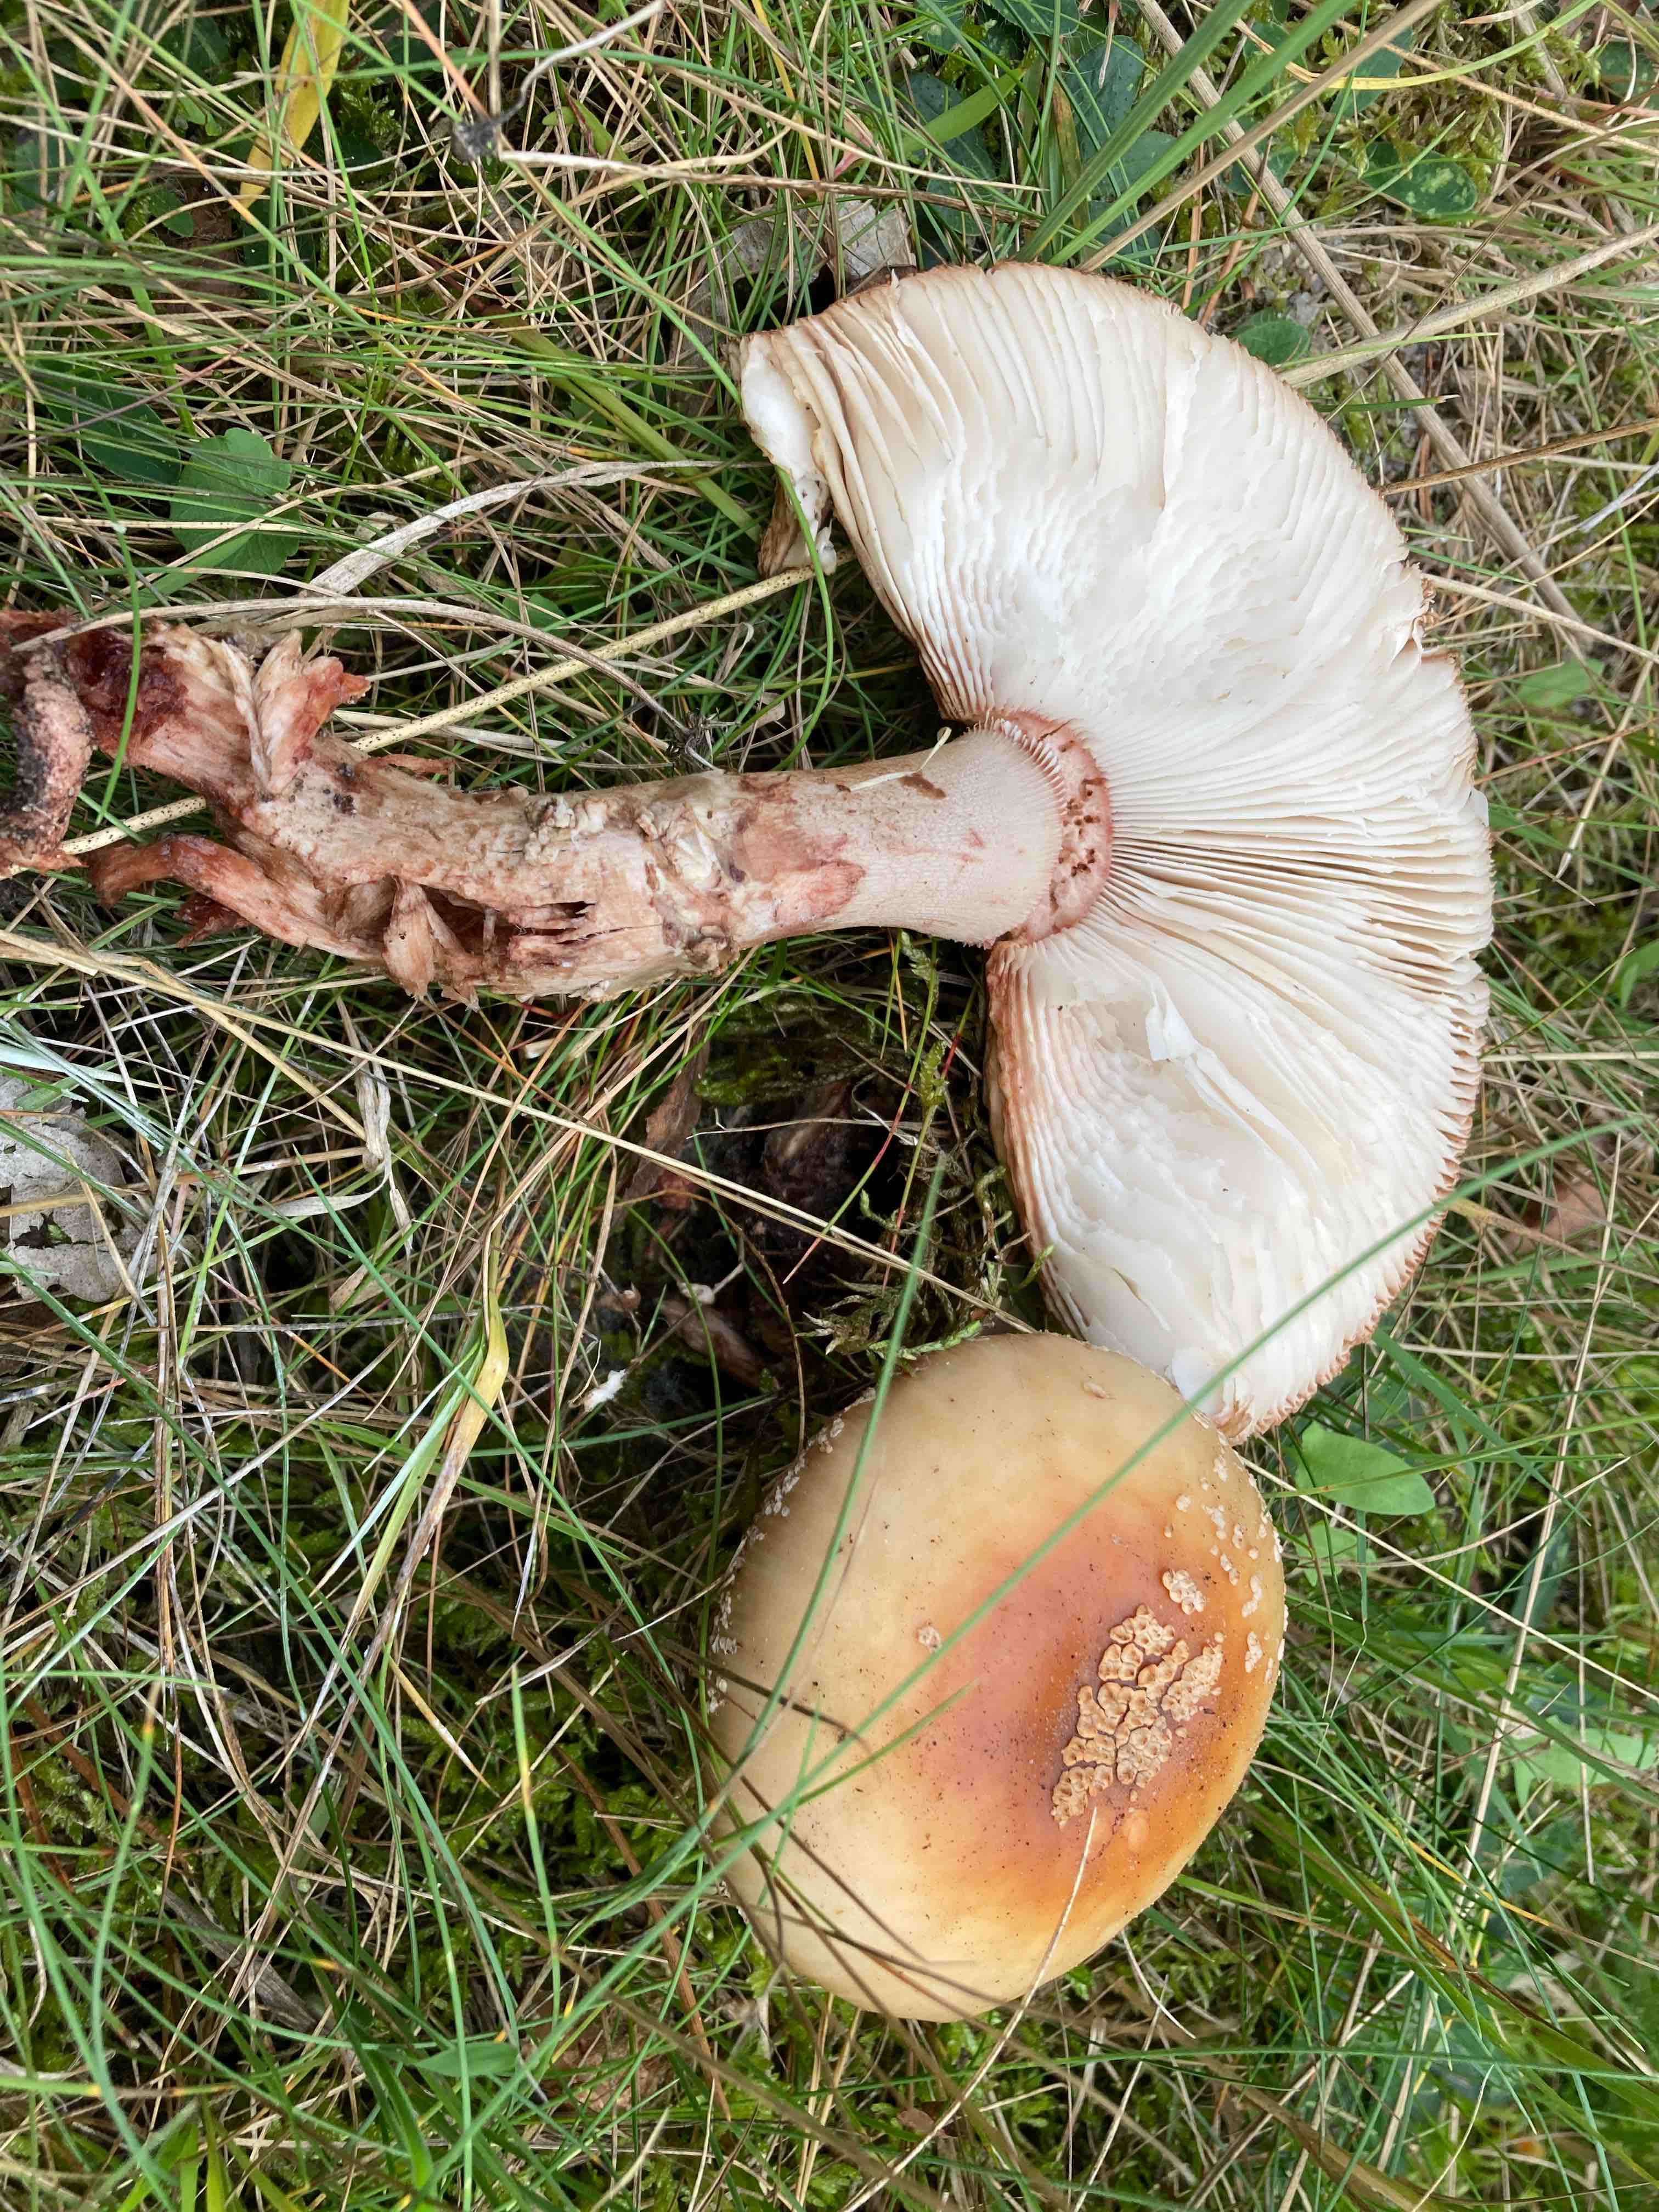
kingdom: Fungi
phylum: Basidiomycota
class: Agaricomycetes
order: Agaricales
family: Amanitaceae
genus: Amanita
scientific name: Amanita rubescens
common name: rødmende fluesvamp
